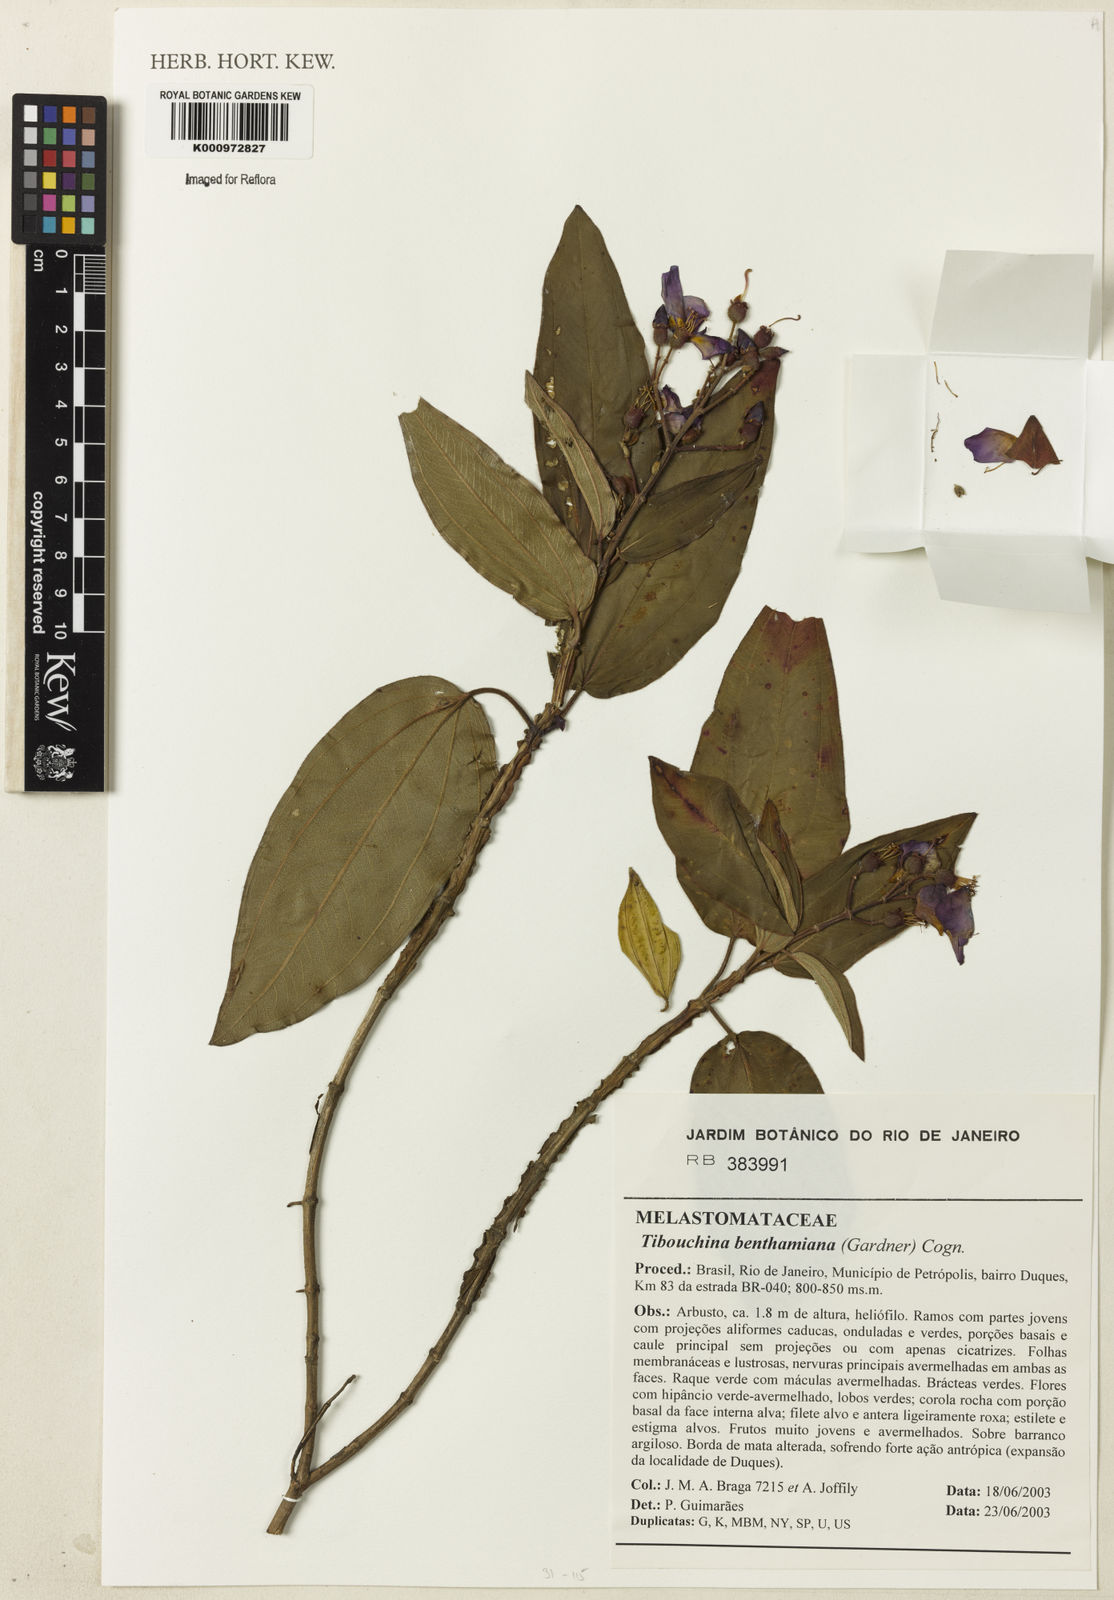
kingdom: Plantae
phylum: Tracheophyta
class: Magnoliopsida
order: Myrtales
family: Melastomataceae
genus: Pleroma
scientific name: Pleroma benthamianum
